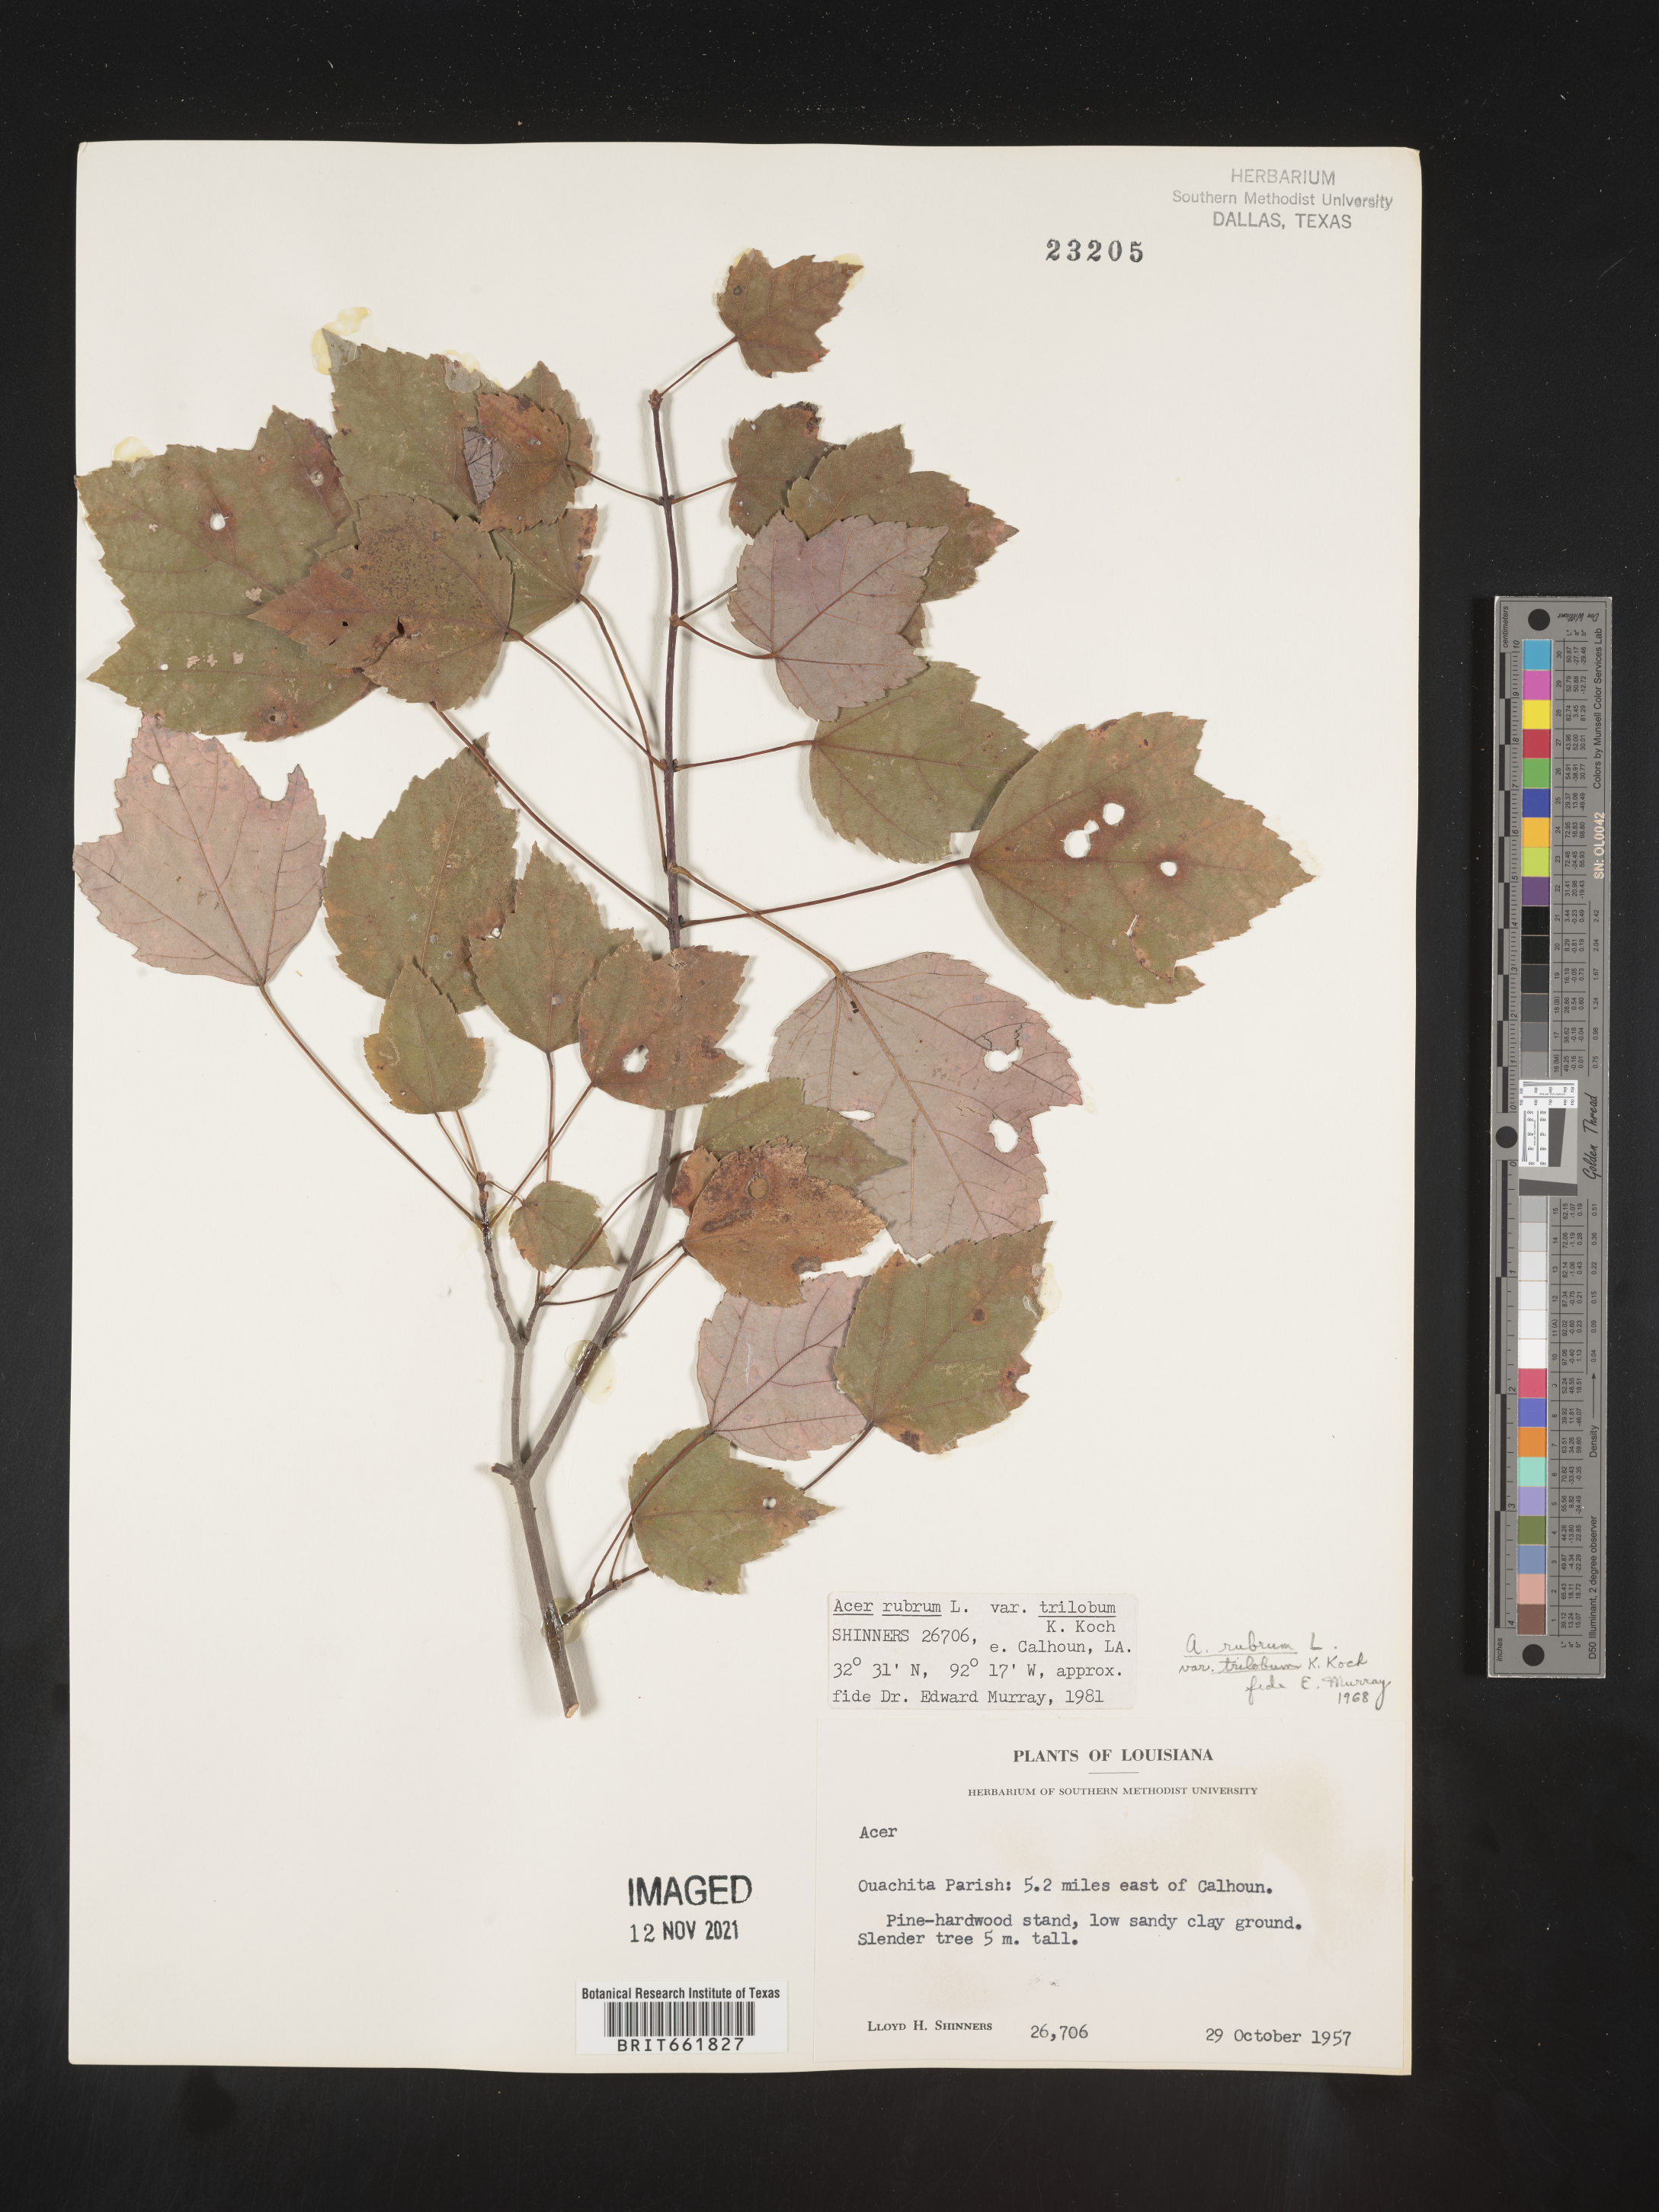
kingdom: Plantae
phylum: Tracheophyta
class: Magnoliopsida
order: Sapindales
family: Sapindaceae
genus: Acer
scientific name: Acer rubrum
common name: Red maple
